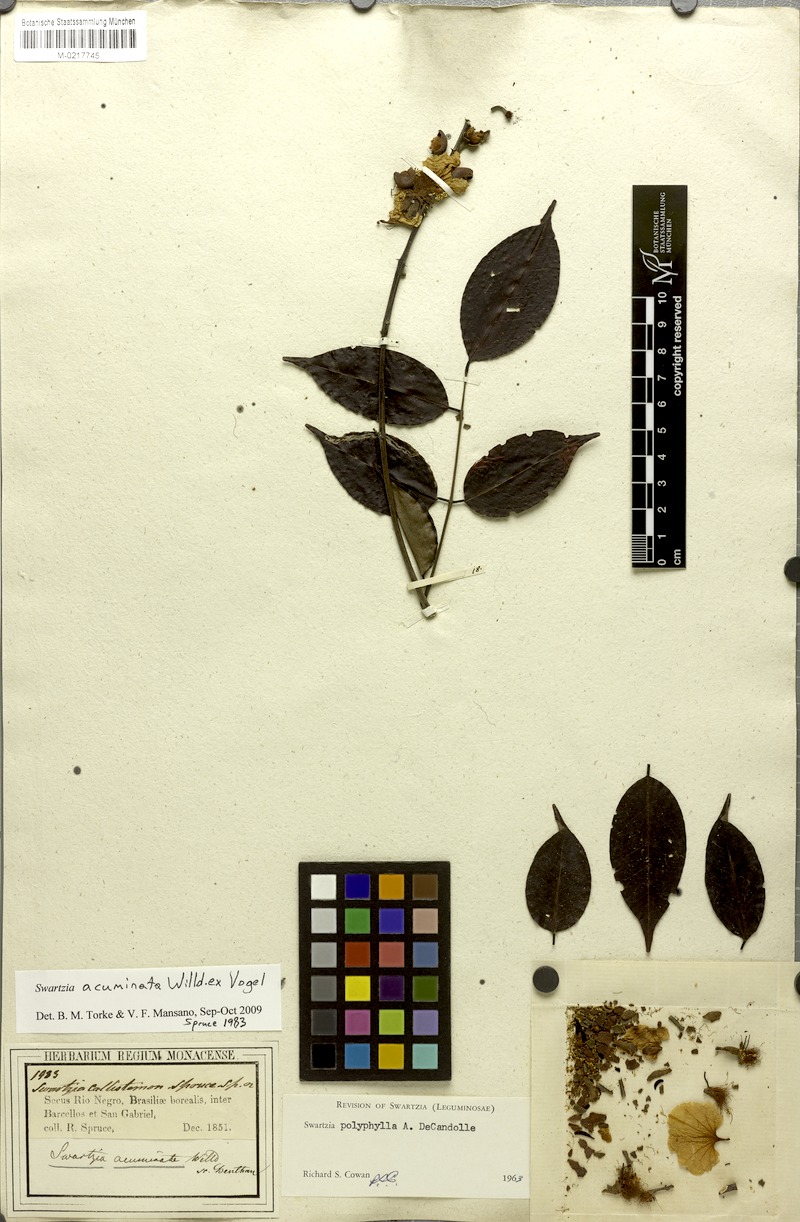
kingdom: Plantae
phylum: Tracheophyta
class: Magnoliopsida
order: Fabales
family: Fabaceae
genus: Swartzia
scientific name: Swartzia acuminata
